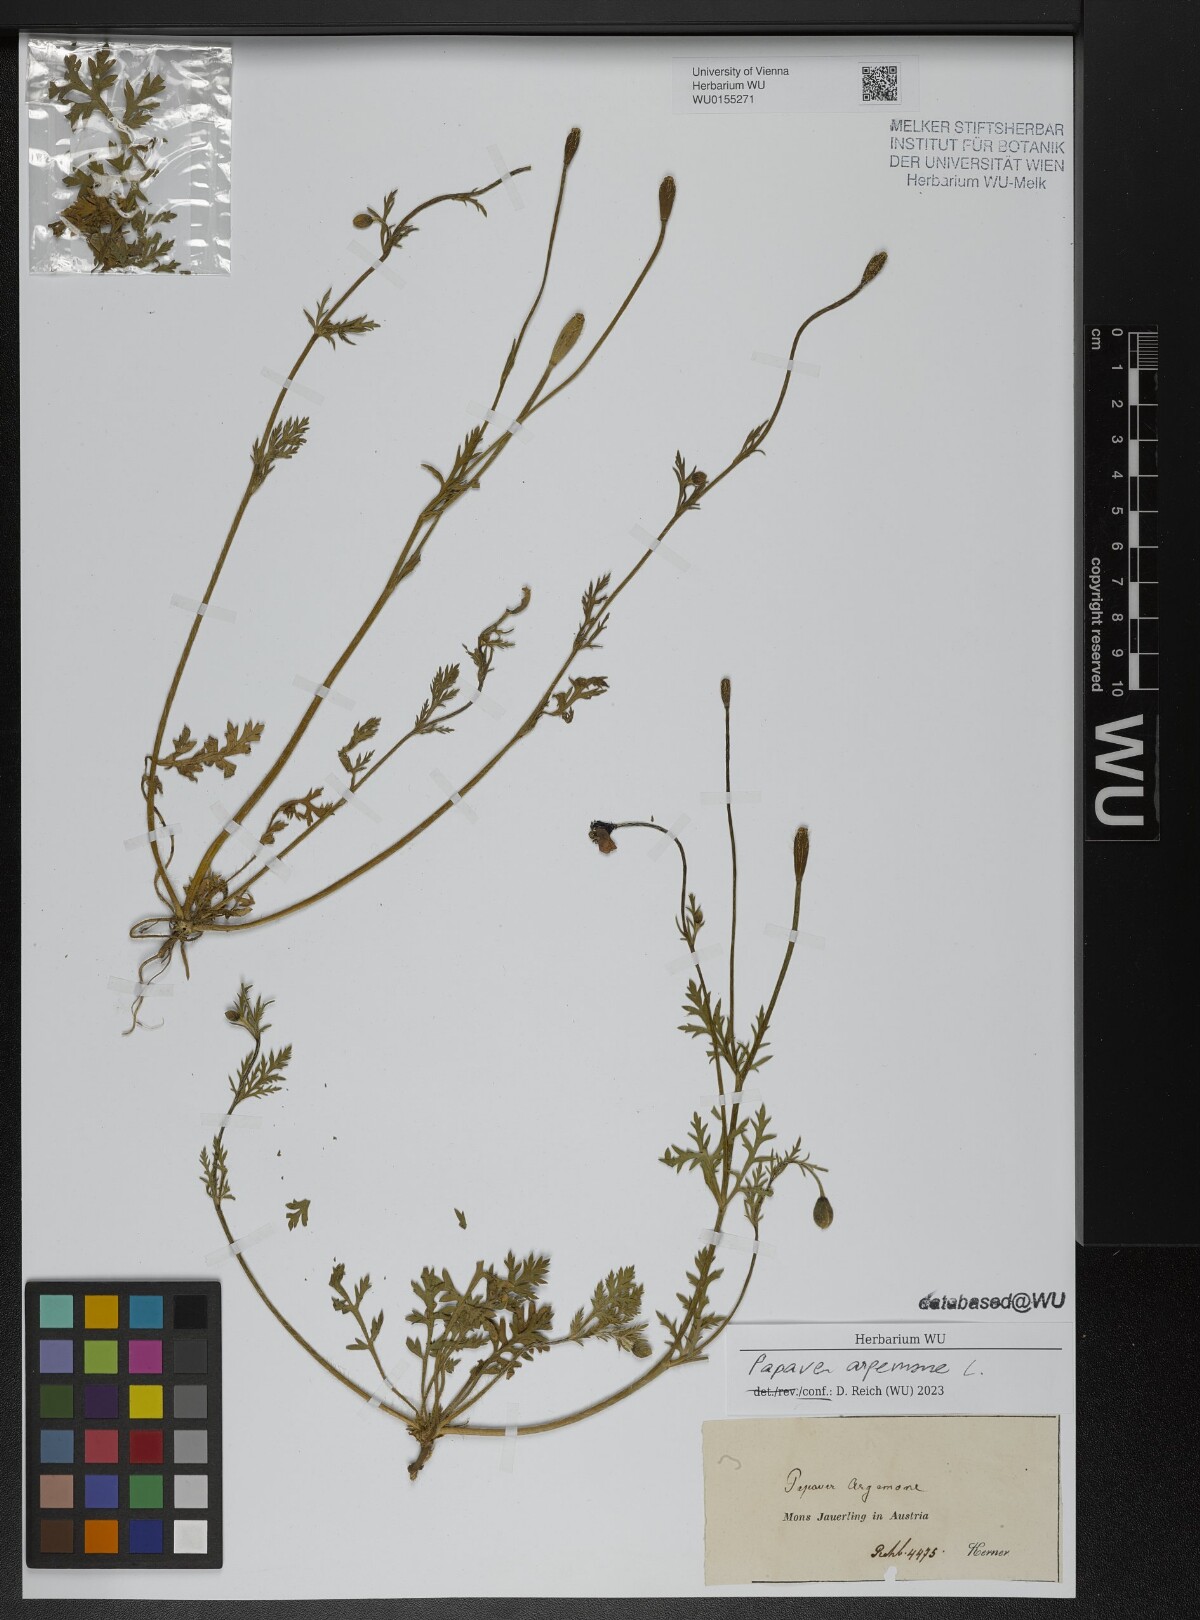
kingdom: Plantae
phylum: Tracheophyta
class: Magnoliopsida
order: Ranunculales
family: Papaveraceae
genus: Roemeria
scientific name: Roemeria argemone
